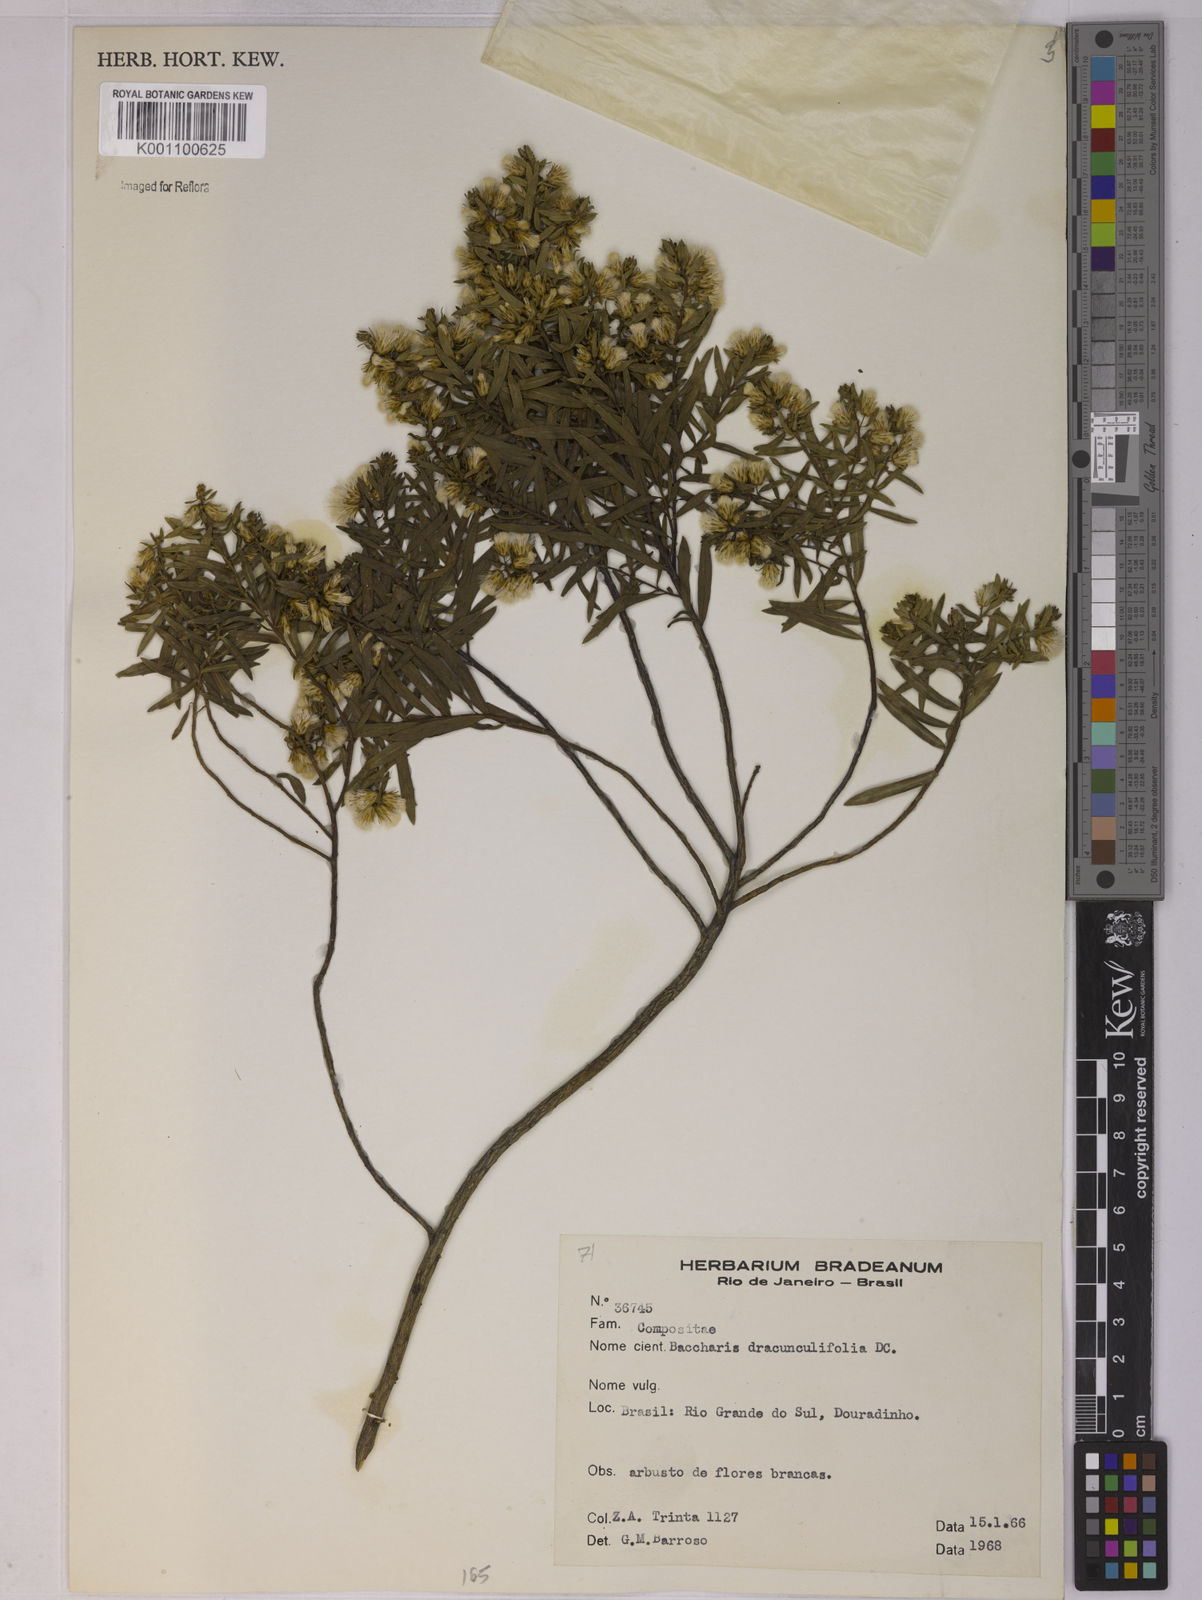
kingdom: Plantae
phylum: Tracheophyta
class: Magnoliopsida
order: Asterales
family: Asteraceae
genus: Baccharis
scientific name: Baccharis dracunculifolia
